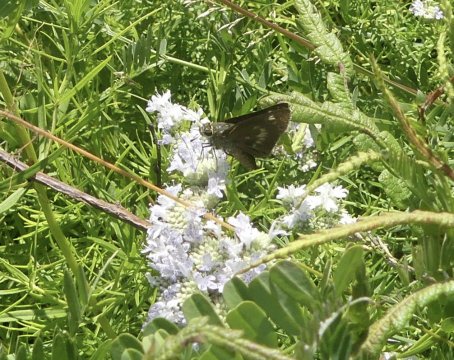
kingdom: Animalia
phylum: Arthropoda
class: Insecta
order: Lepidoptera
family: Hesperiidae
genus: Polites
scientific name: Polites egeremet
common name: Northern Broken-Dash
